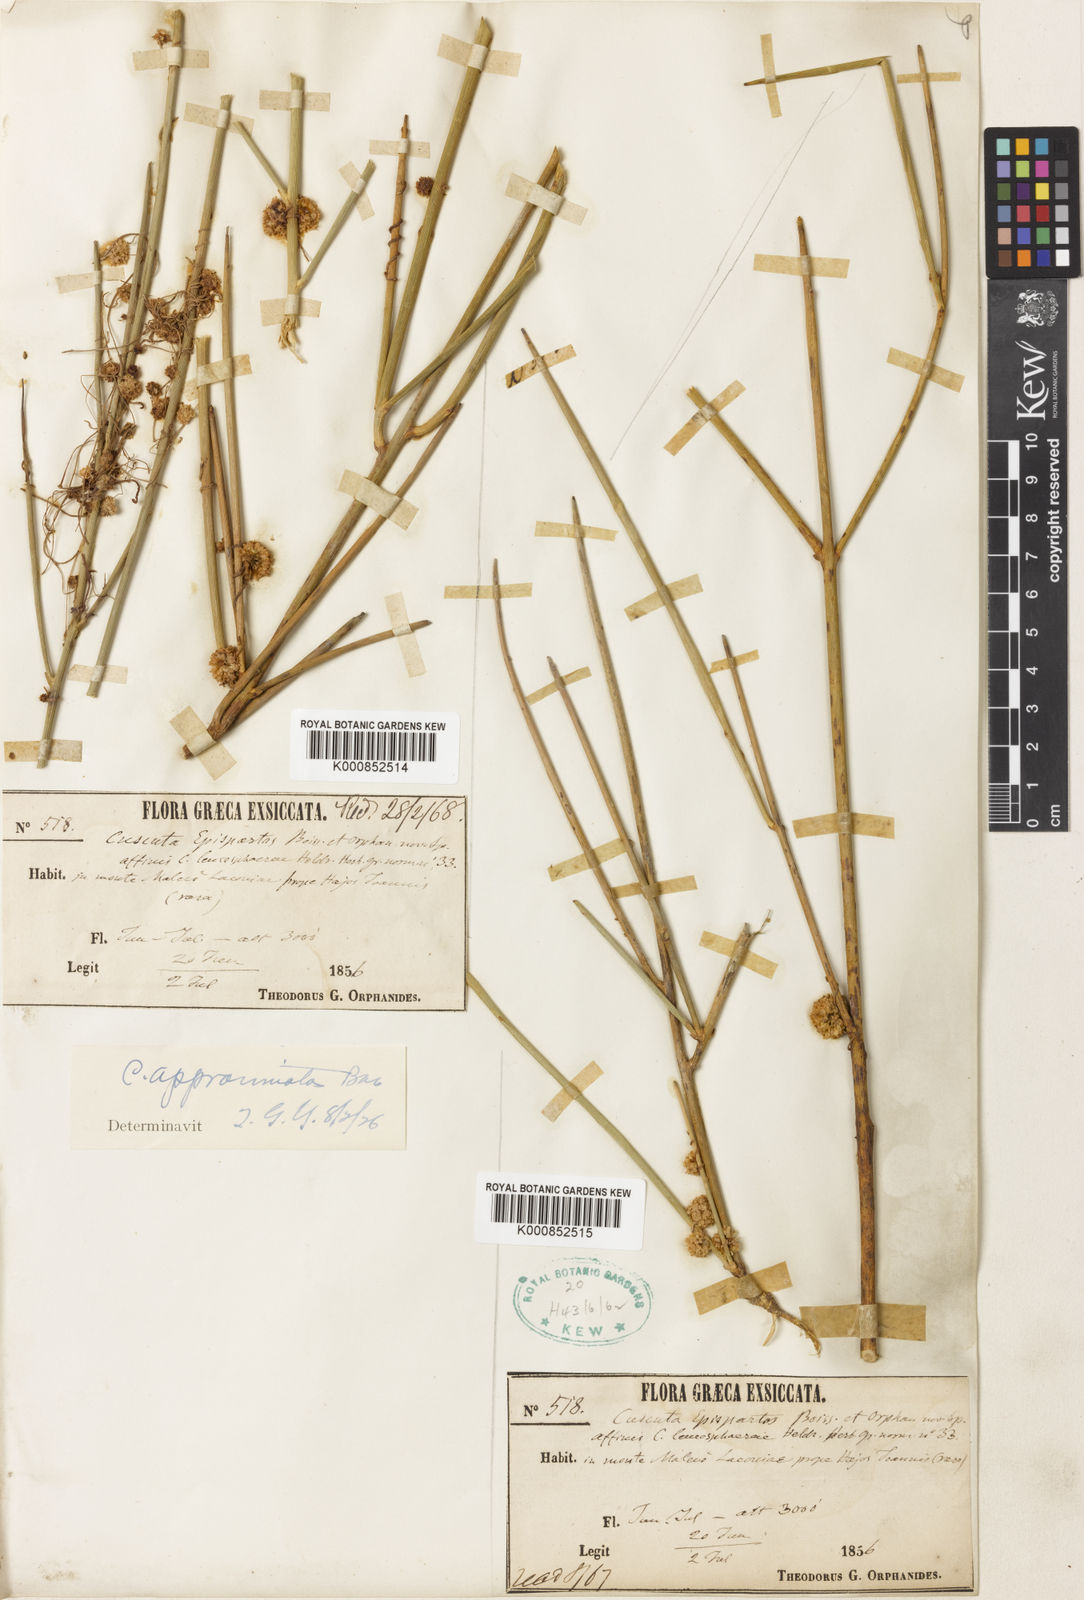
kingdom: Plantae
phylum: Tracheophyta
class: Magnoliopsida
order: Solanales
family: Convolvulaceae
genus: Cuscuta
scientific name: Cuscuta approximata
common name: Alfalfa dodder
